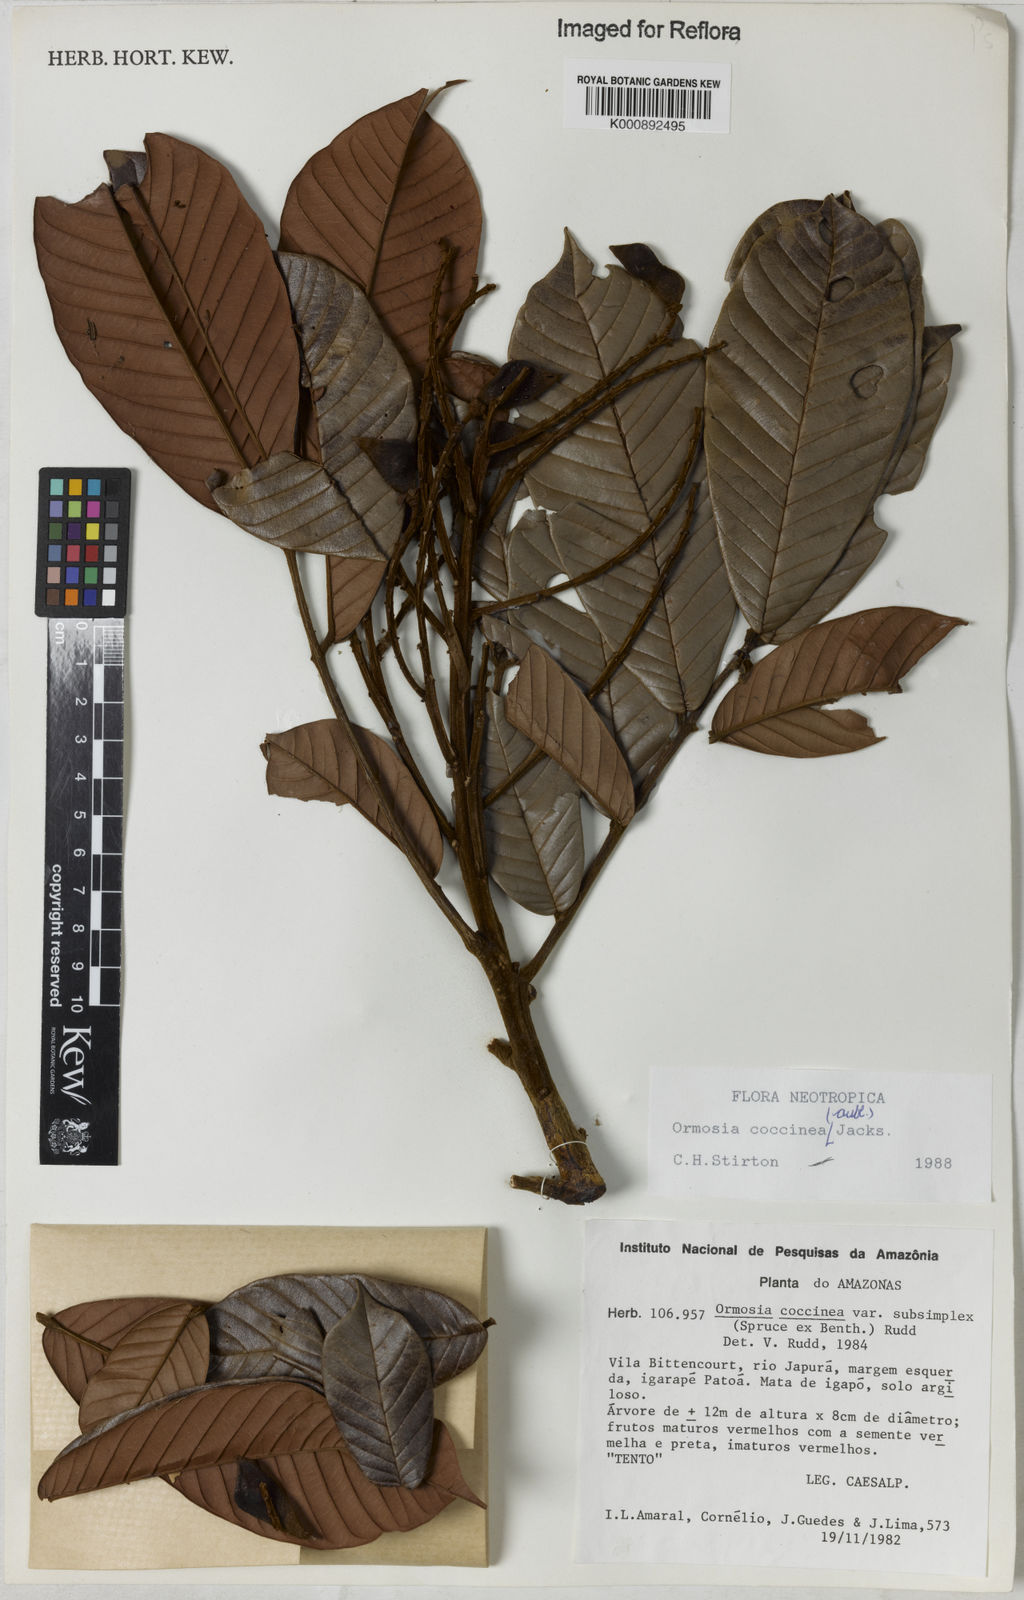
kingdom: Plantae
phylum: Tracheophyta
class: Magnoliopsida
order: Fabales
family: Fabaceae
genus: Ormosia
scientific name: Ormosia coccinea
